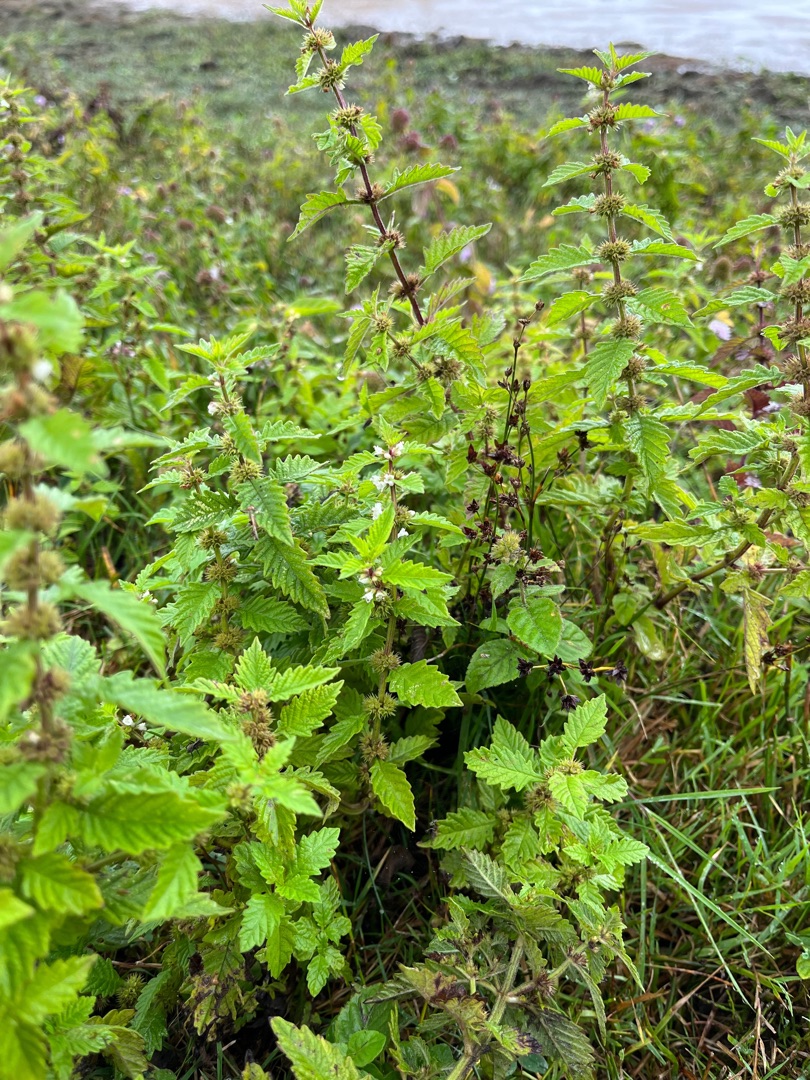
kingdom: Plantae
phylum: Tracheophyta
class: Magnoliopsida
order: Lamiales
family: Lamiaceae
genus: Lycopus
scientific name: Lycopus europaeus
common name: Sværtevæld
